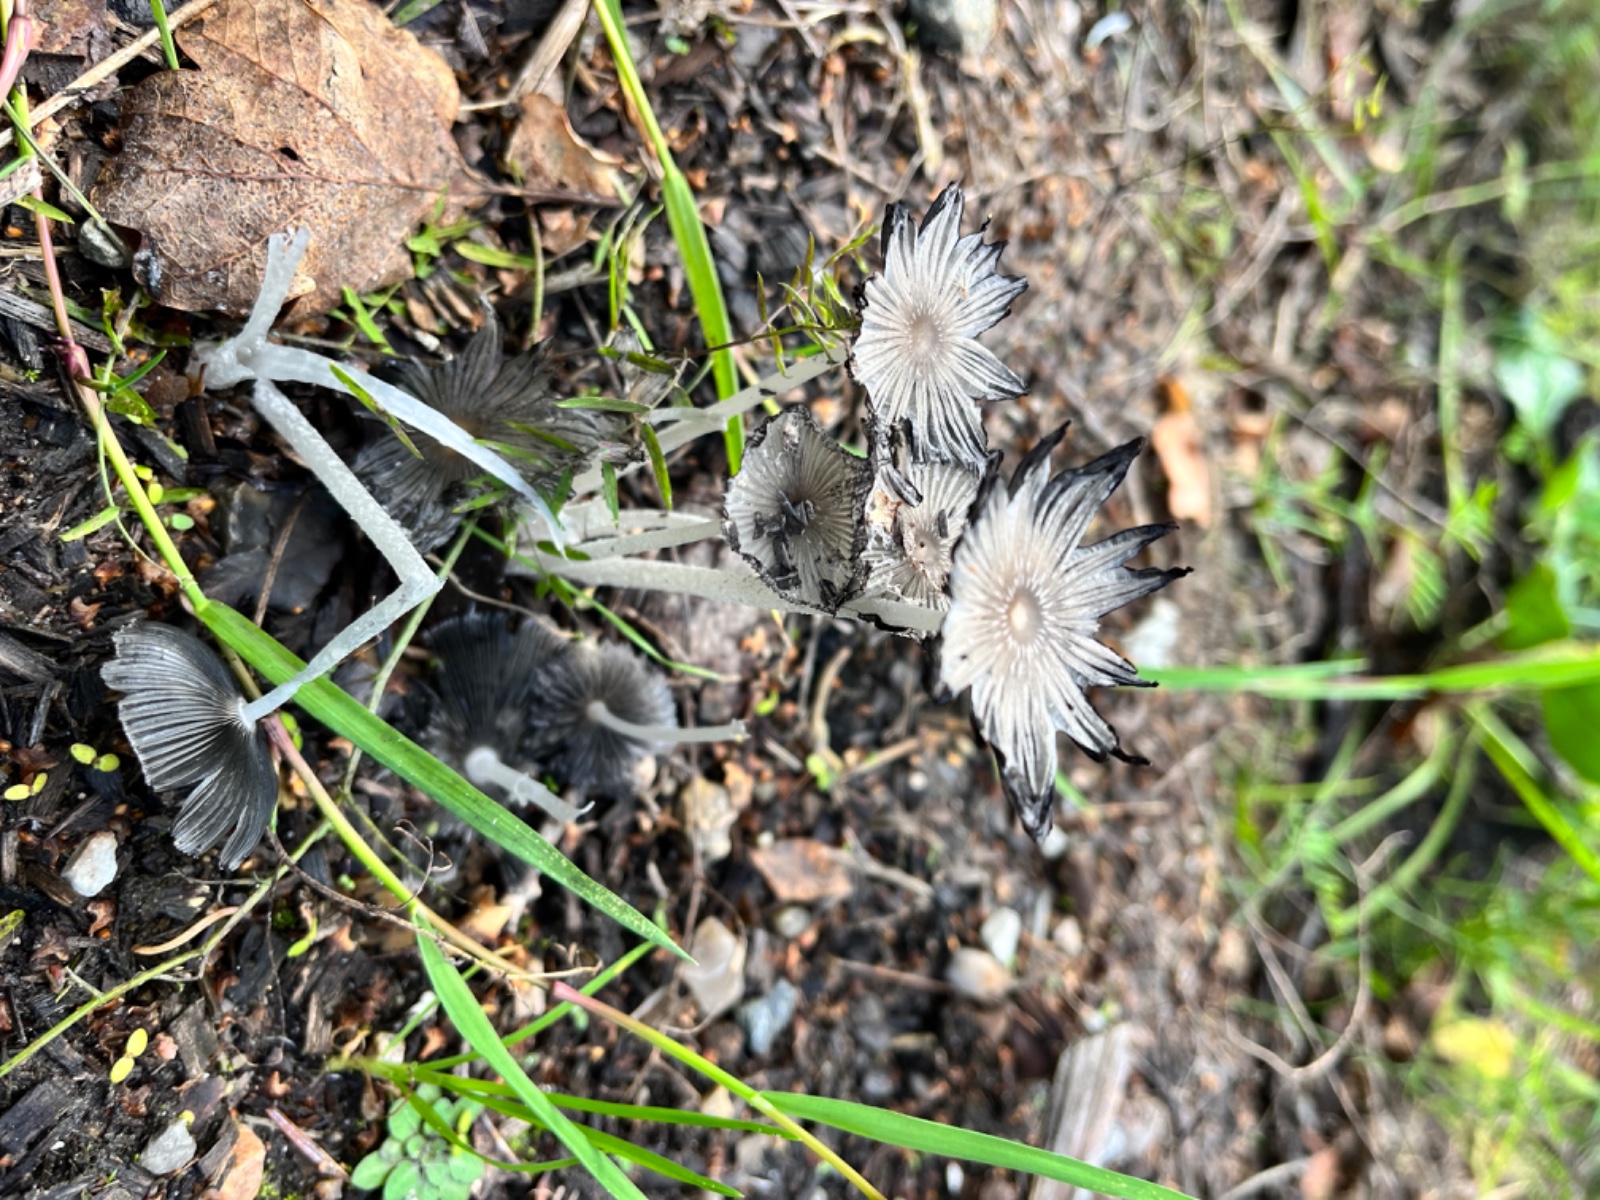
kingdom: Fungi
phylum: Basidiomycota
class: Agaricomycetes
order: Agaricales
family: Psathyrellaceae
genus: Coprinopsis
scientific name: Coprinopsis
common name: blækhat
